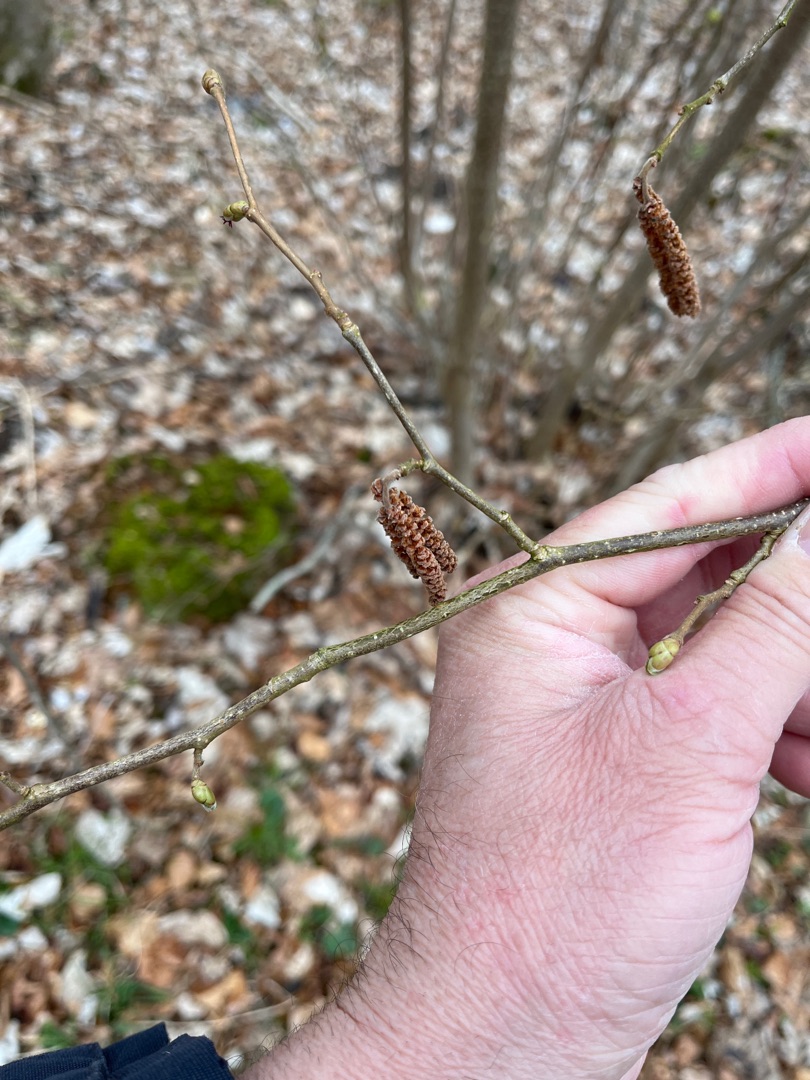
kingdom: Plantae
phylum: Tracheophyta
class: Magnoliopsida
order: Fagales
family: Betulaceae
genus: Corylus
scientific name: Corylus avellana
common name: Hassel
